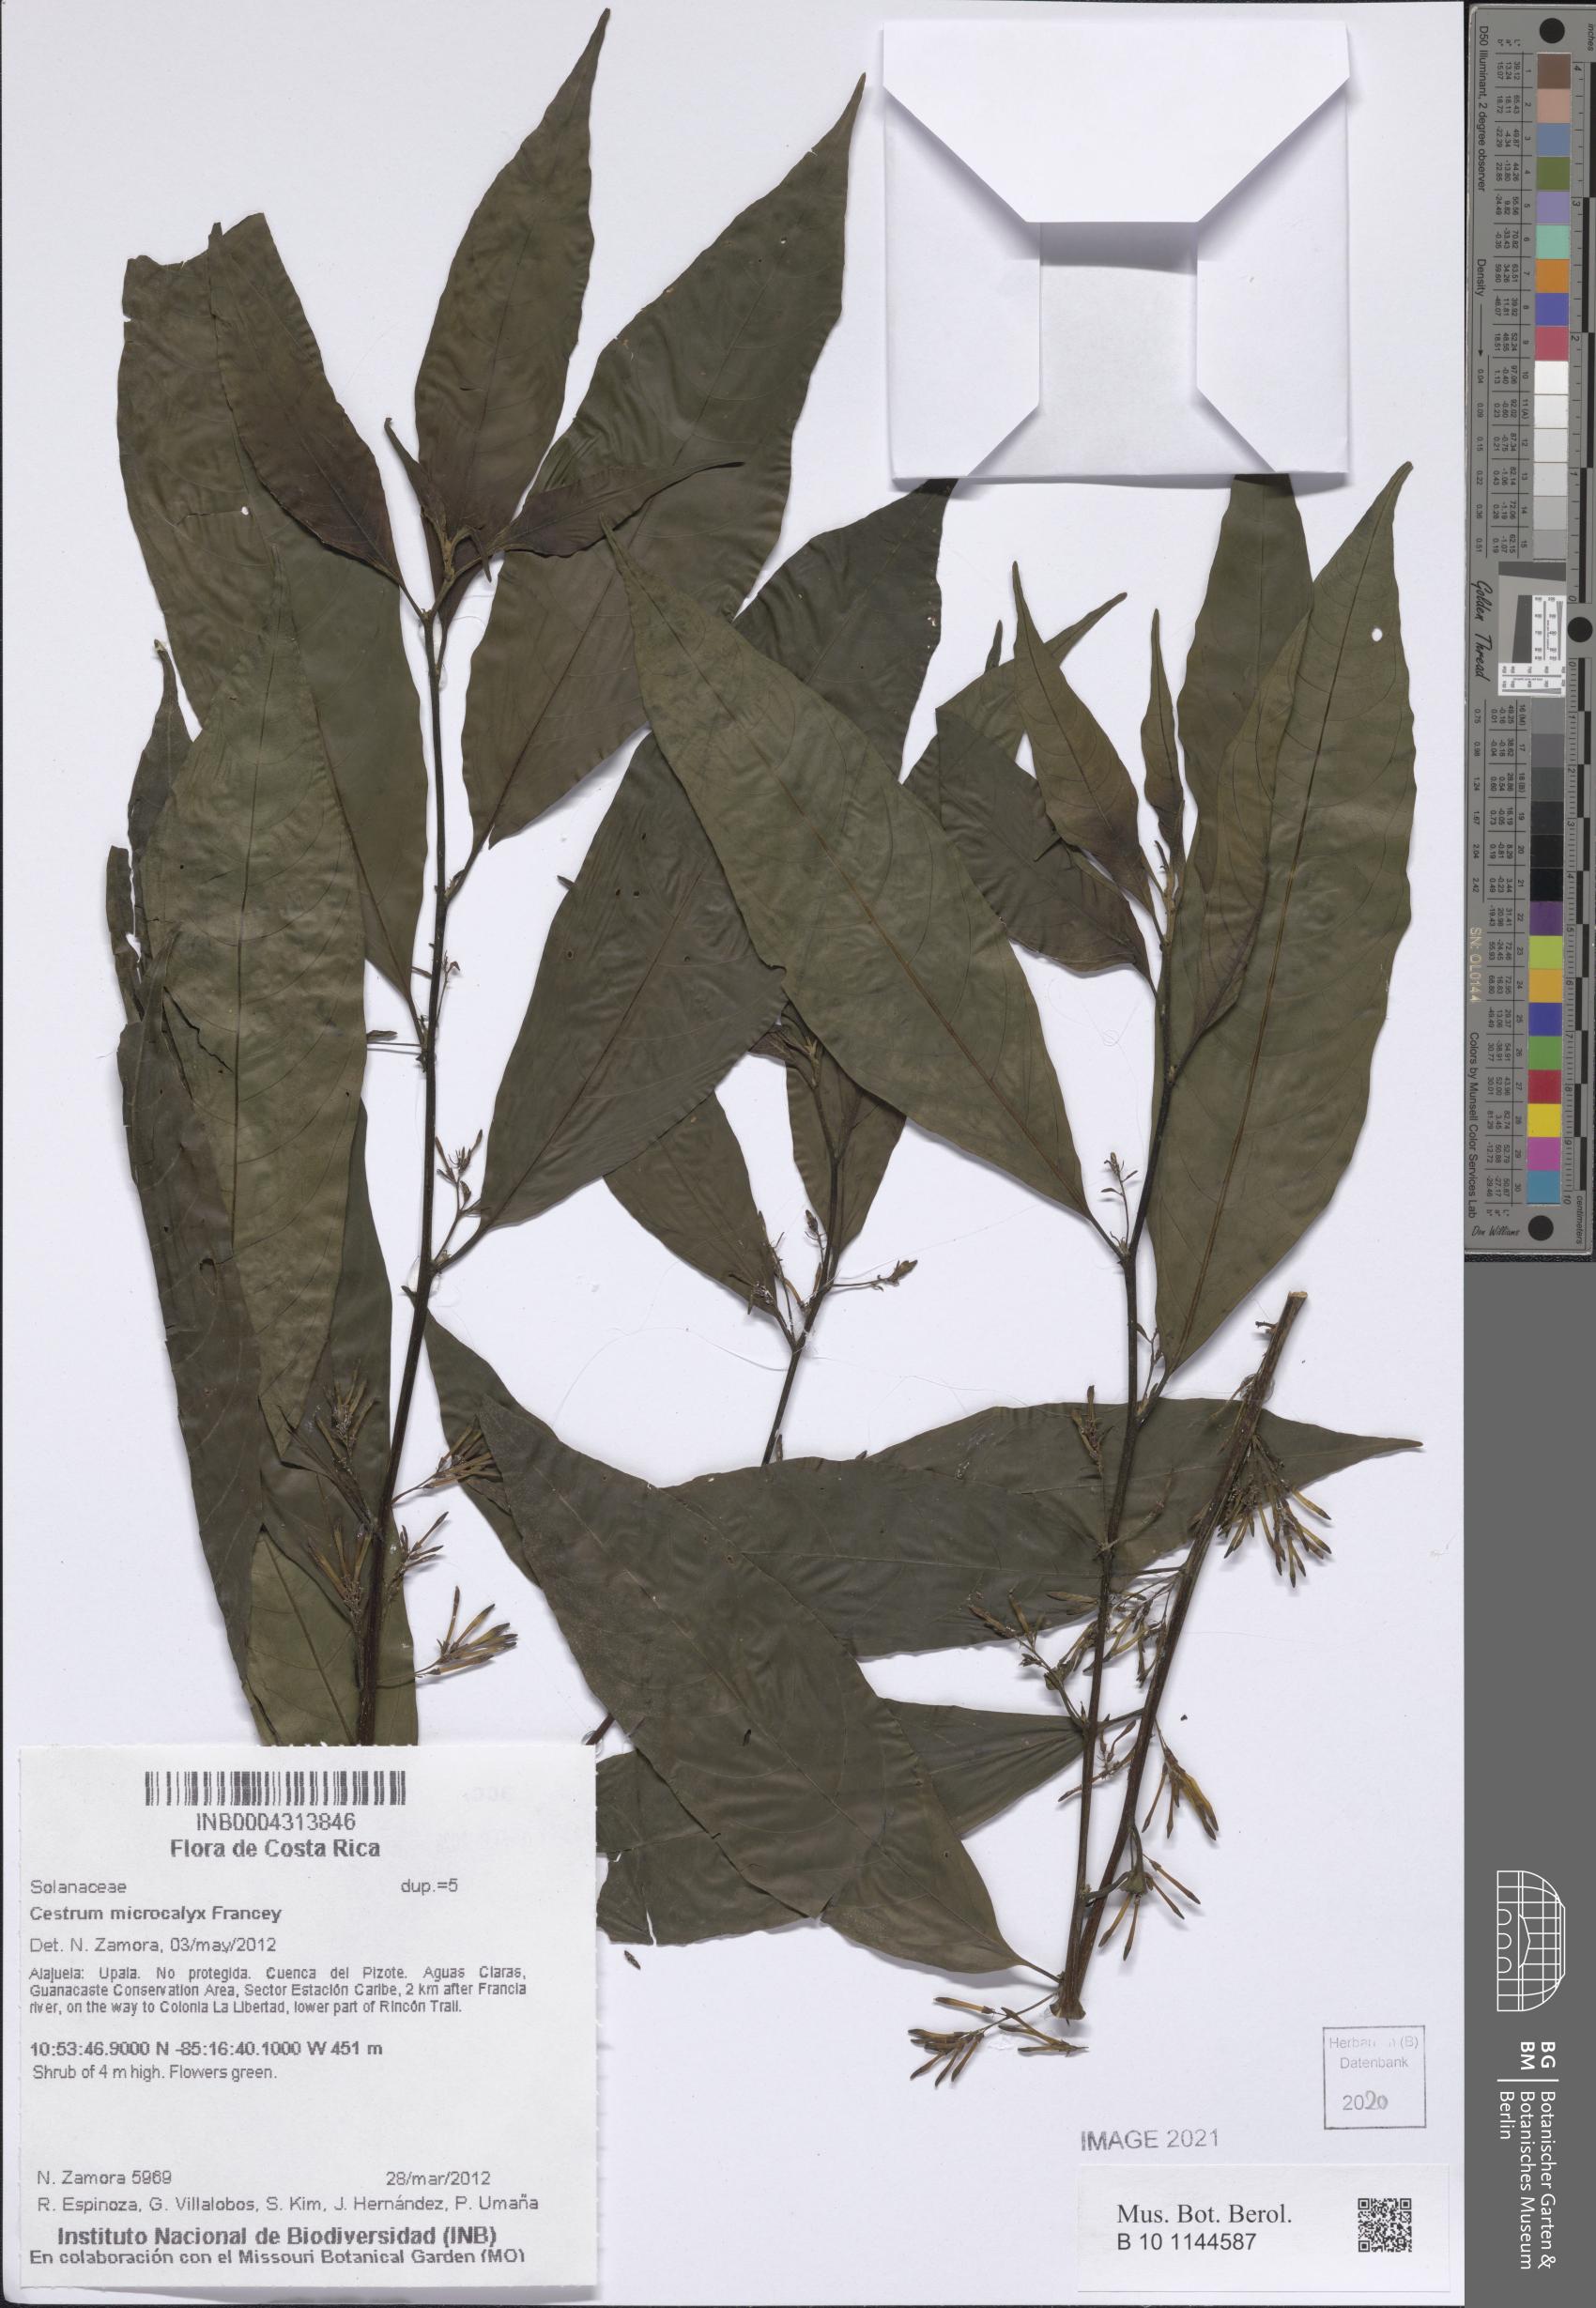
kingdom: Plantae
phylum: Tracheophyta
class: Magnoliopsida
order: Solanales
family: Solanaceae
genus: Cestrum
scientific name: Cestrum microcalyx
